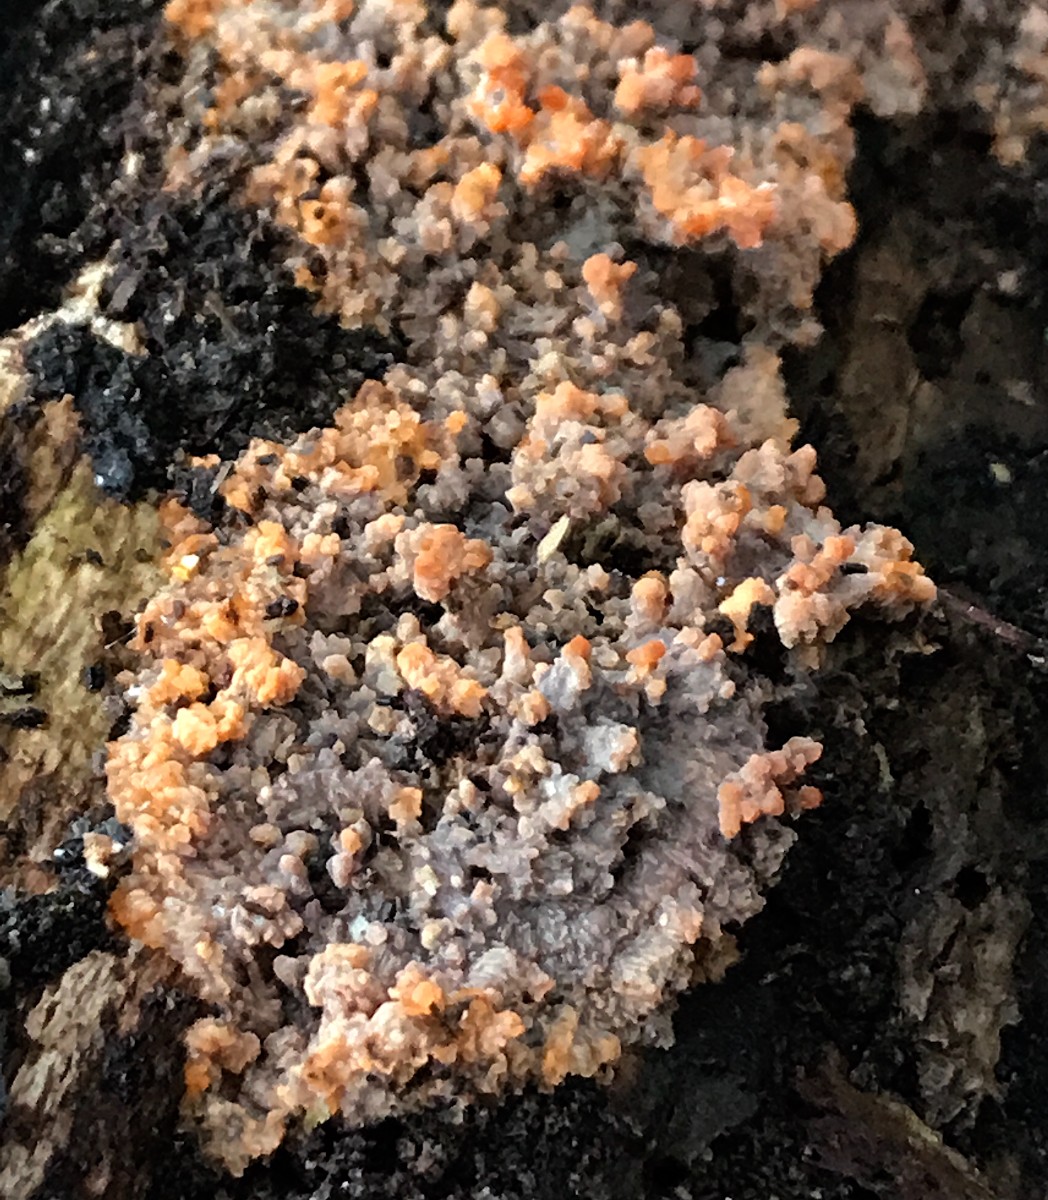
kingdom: Fungi
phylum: Basidiomycota
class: Agaricomycetes
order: Polyporales
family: Meruliaceae
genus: Phlebia
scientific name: Phlebia radiata
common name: stråle-åresvamp
